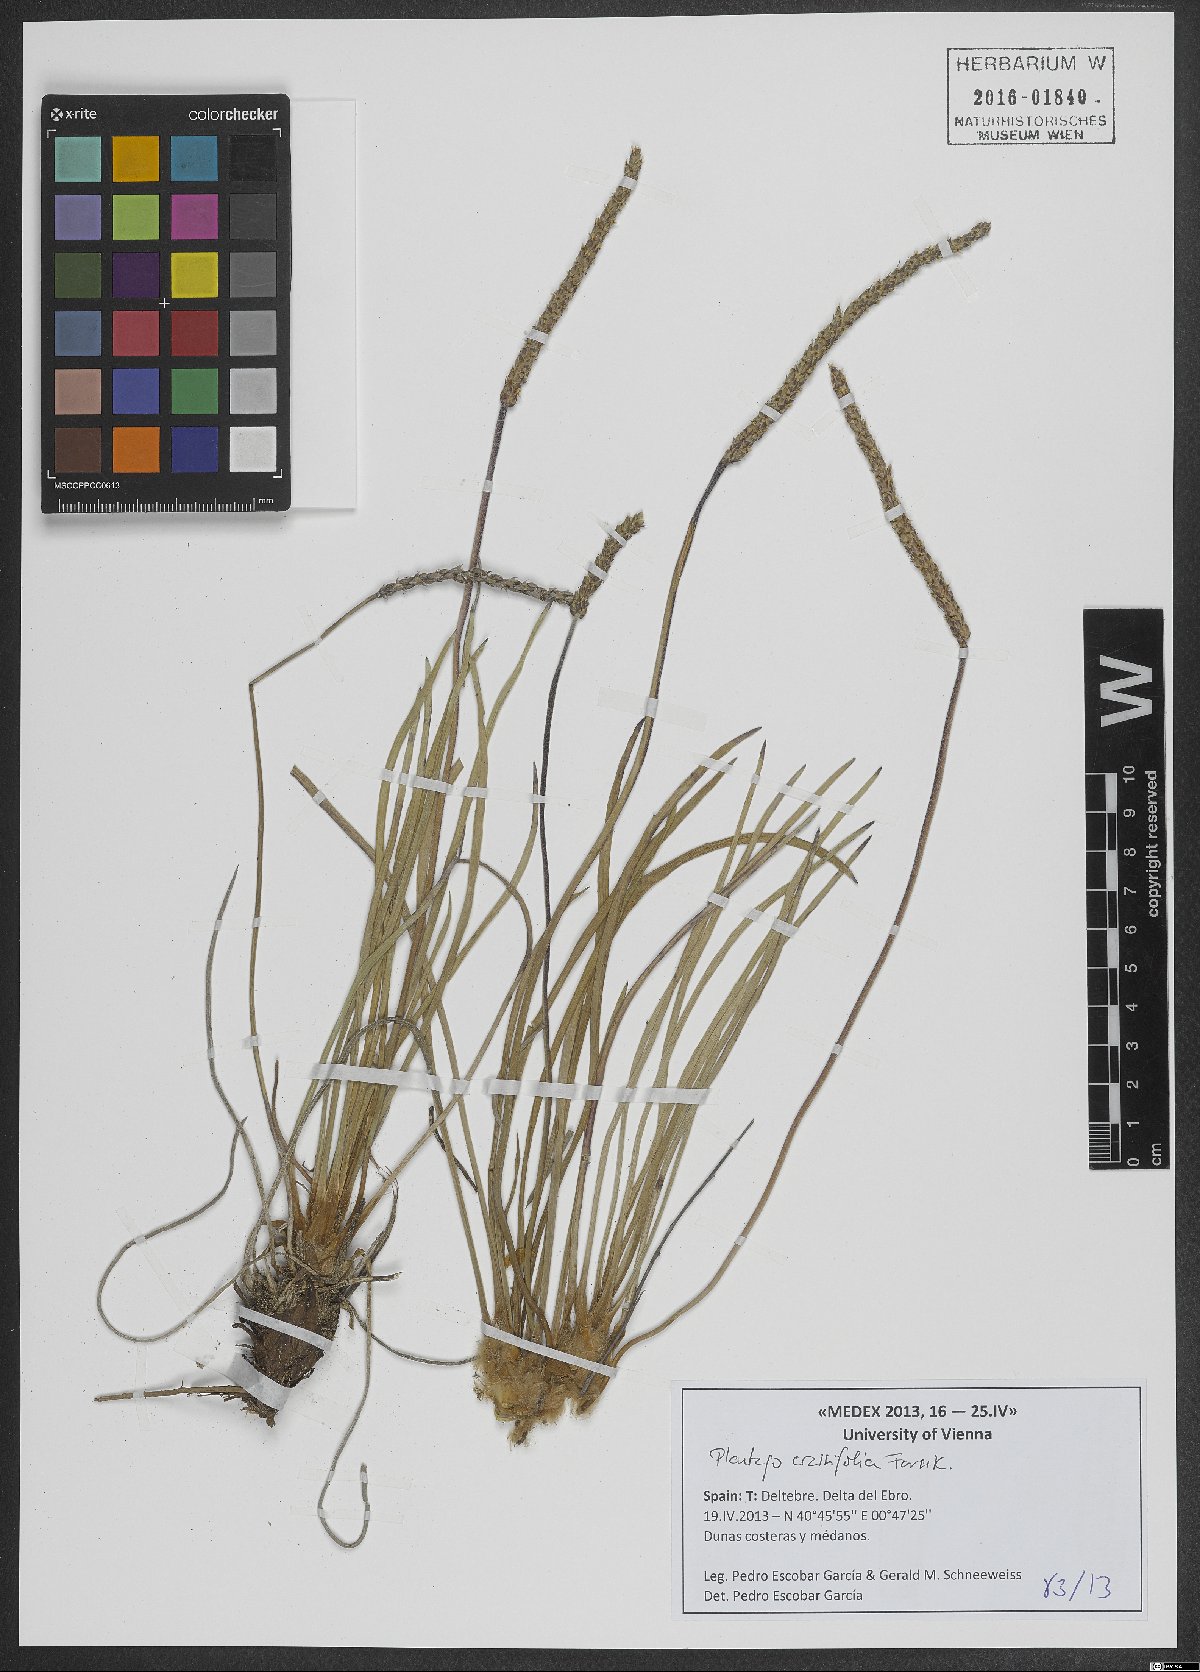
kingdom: Plantae
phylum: Tracheophyta
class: Magnoliopsida
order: Lamiales
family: Plantaginaceae
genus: Plantago
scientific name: Plantago crassifolia
